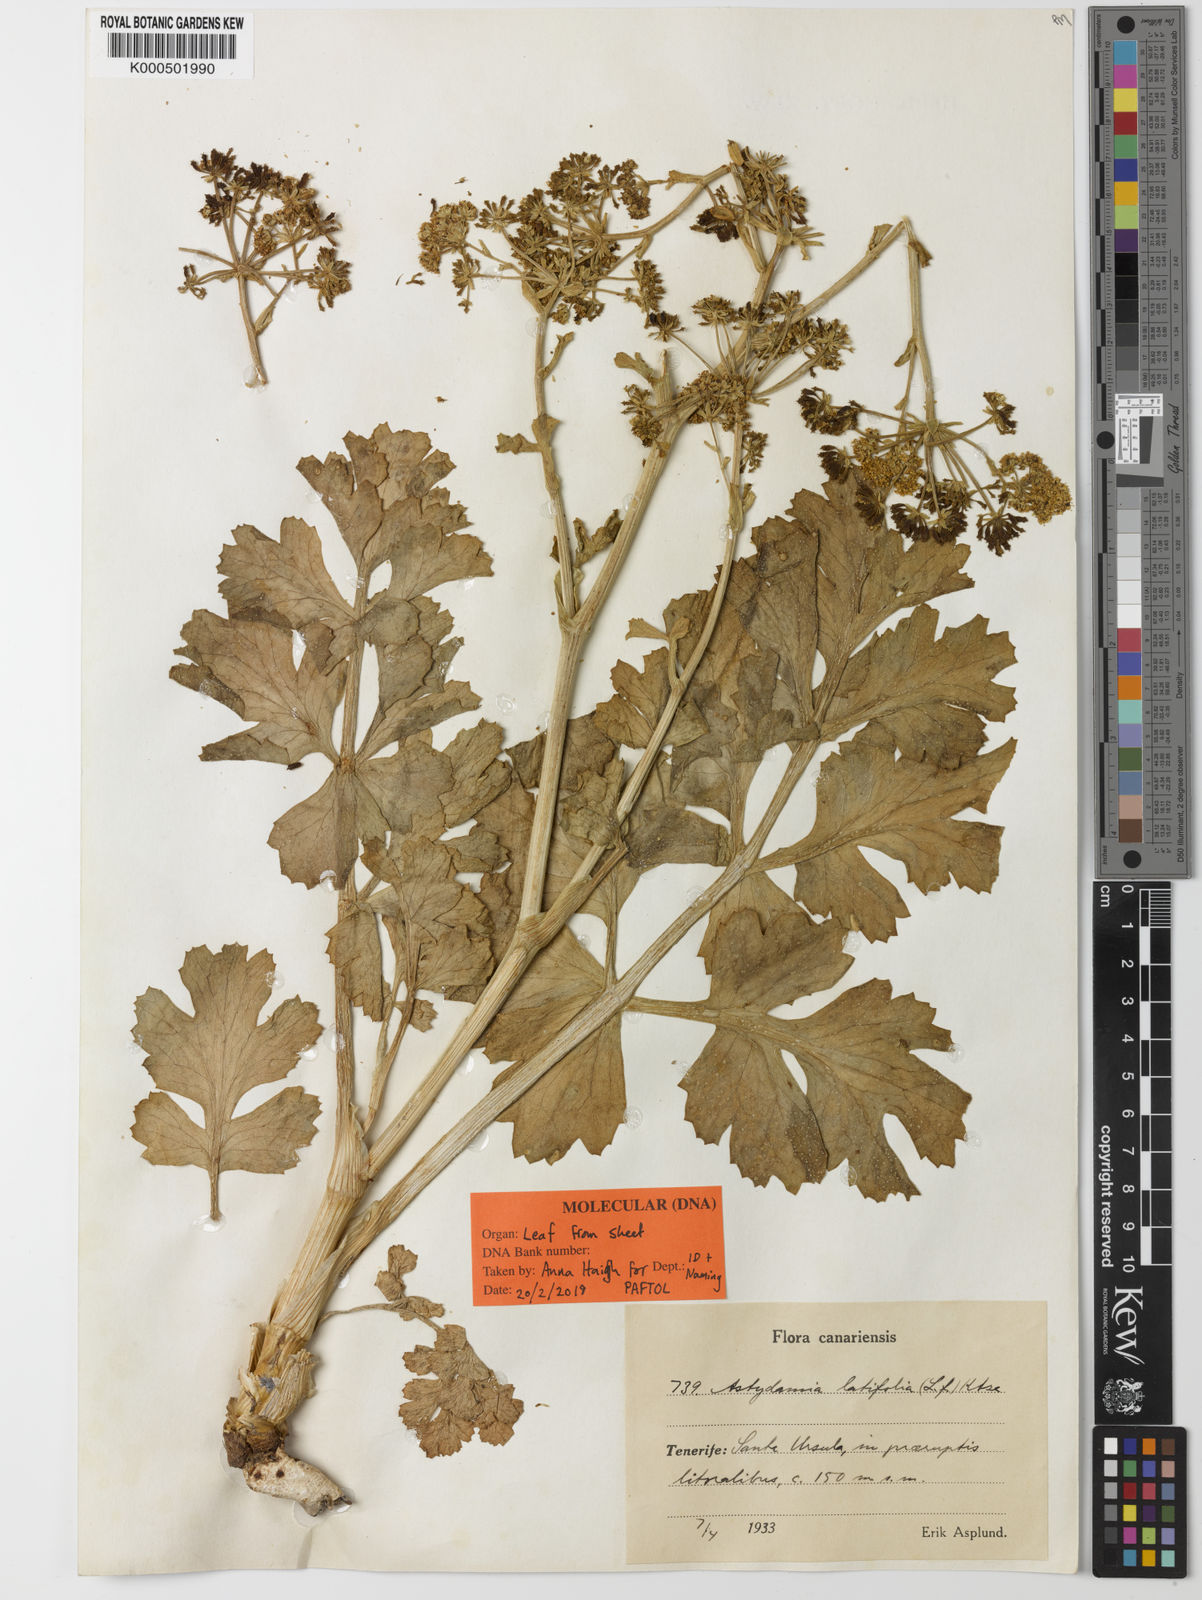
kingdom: Plantae
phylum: Tracheophyta
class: Magnoliopsida
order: Apiales
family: Apiaceae
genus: Astydamia
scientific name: Astydamia latifolia
